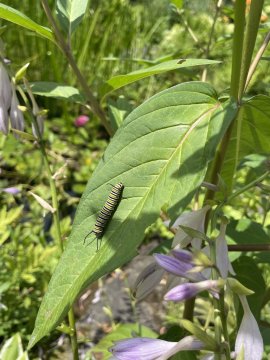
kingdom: Animalia
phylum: Arthropoda
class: Insecta
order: Lepidoptera
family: Nymphalidae
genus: Danaus
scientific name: Danaus plexippus
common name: Monarch
